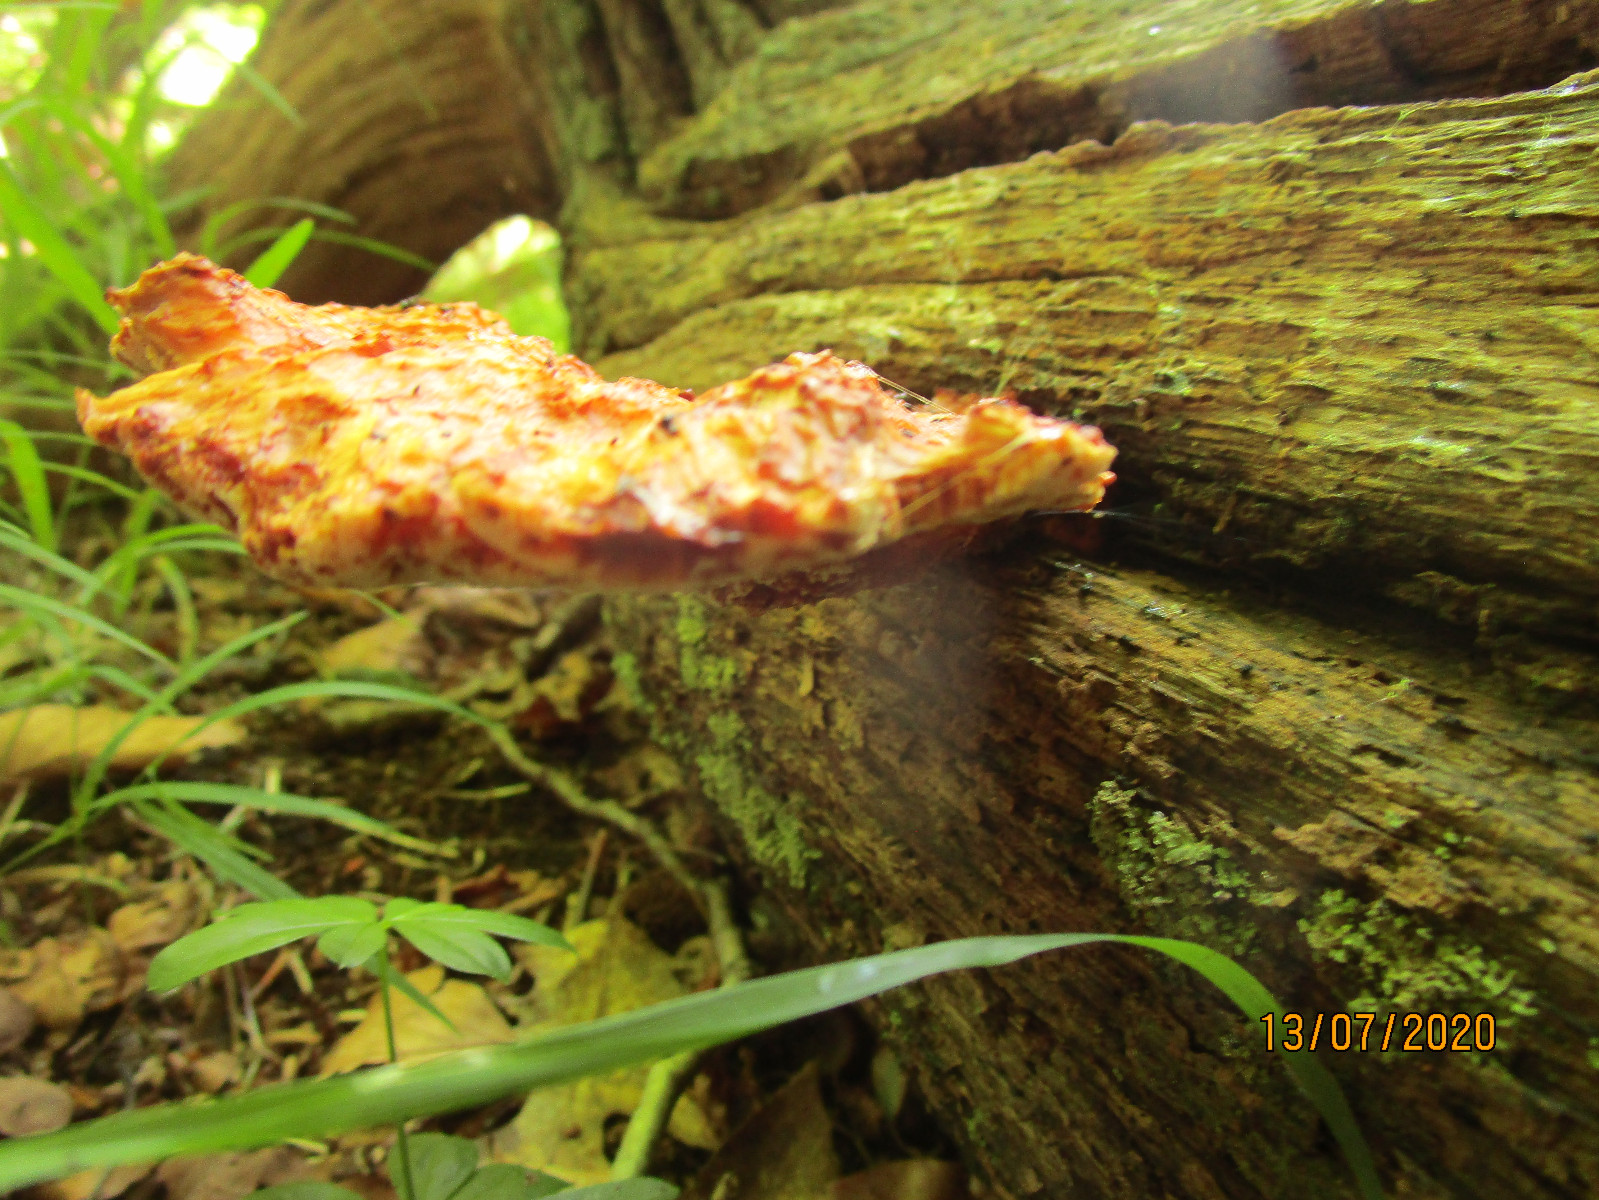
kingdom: Fungi
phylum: Basidiomycota
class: Agaricomycetes
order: Polyporales
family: Fomitopsidaceae
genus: Buglossoporus
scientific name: Buglossoporus quercinus
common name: egetunge
